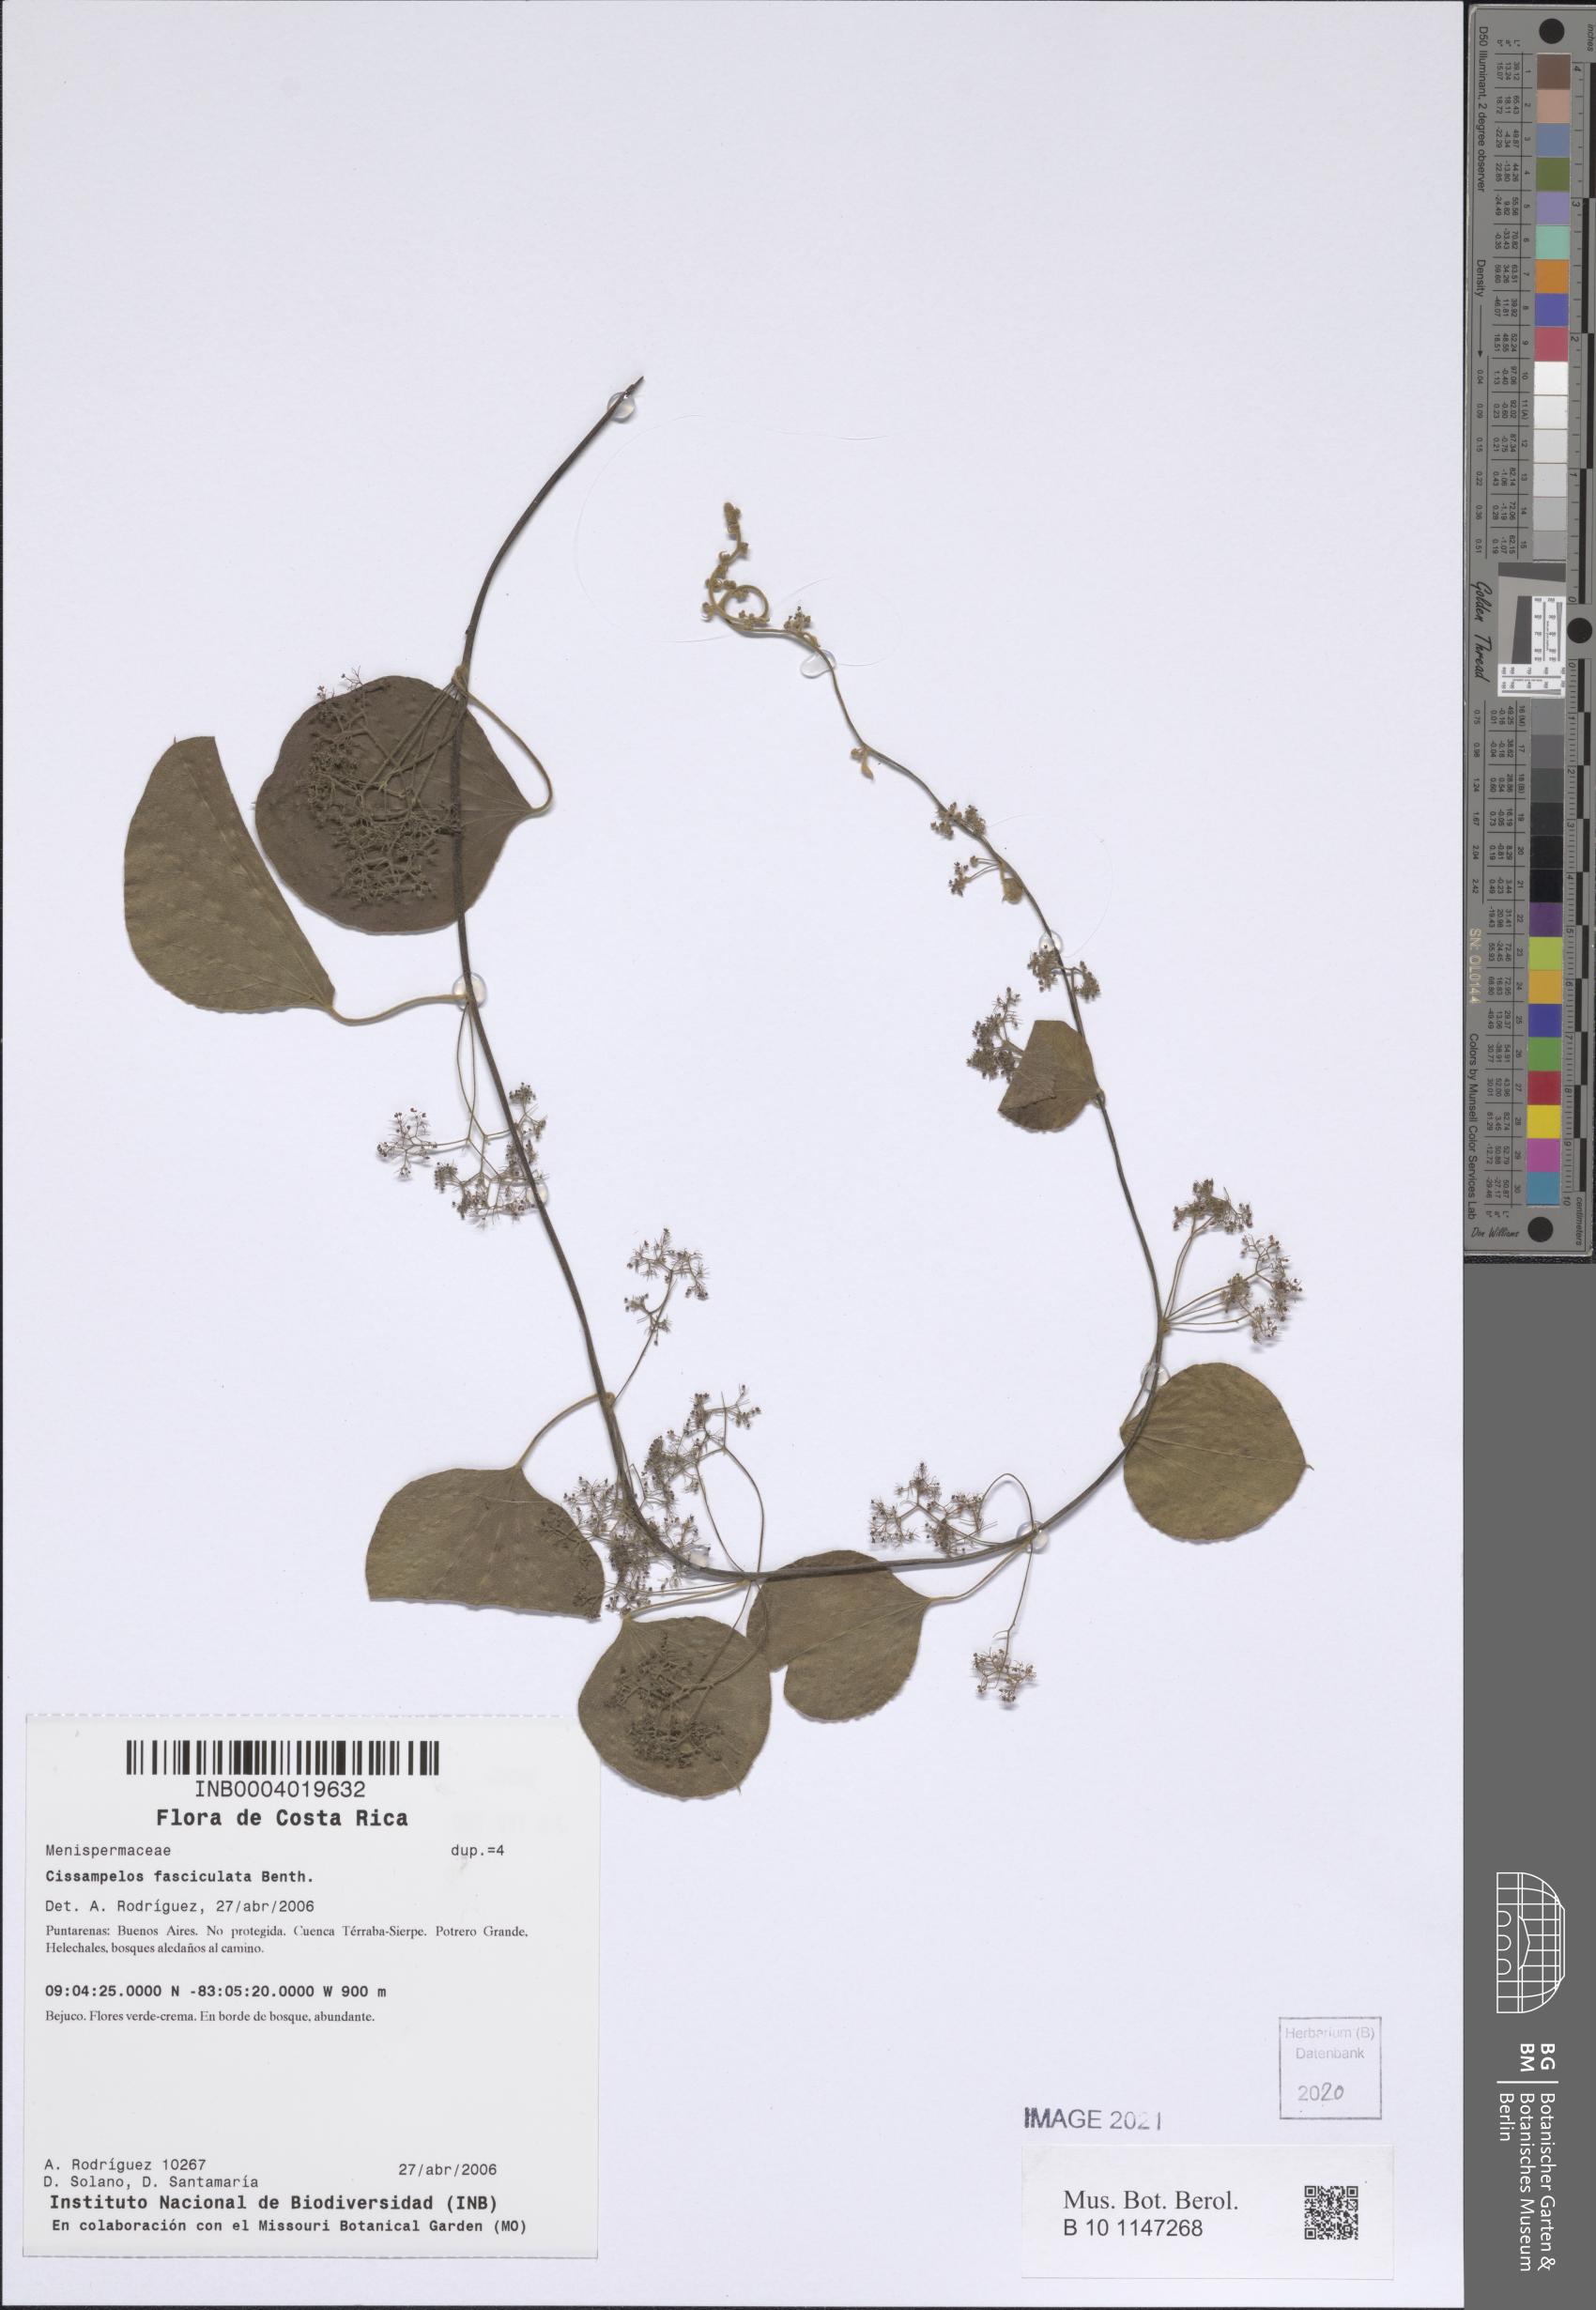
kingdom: Plantae
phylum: Tracheophyta
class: Magnoliopsida
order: Ranunculales
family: Menispermaceae
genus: Cissampelos
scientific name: Cissampelos fasciculata
